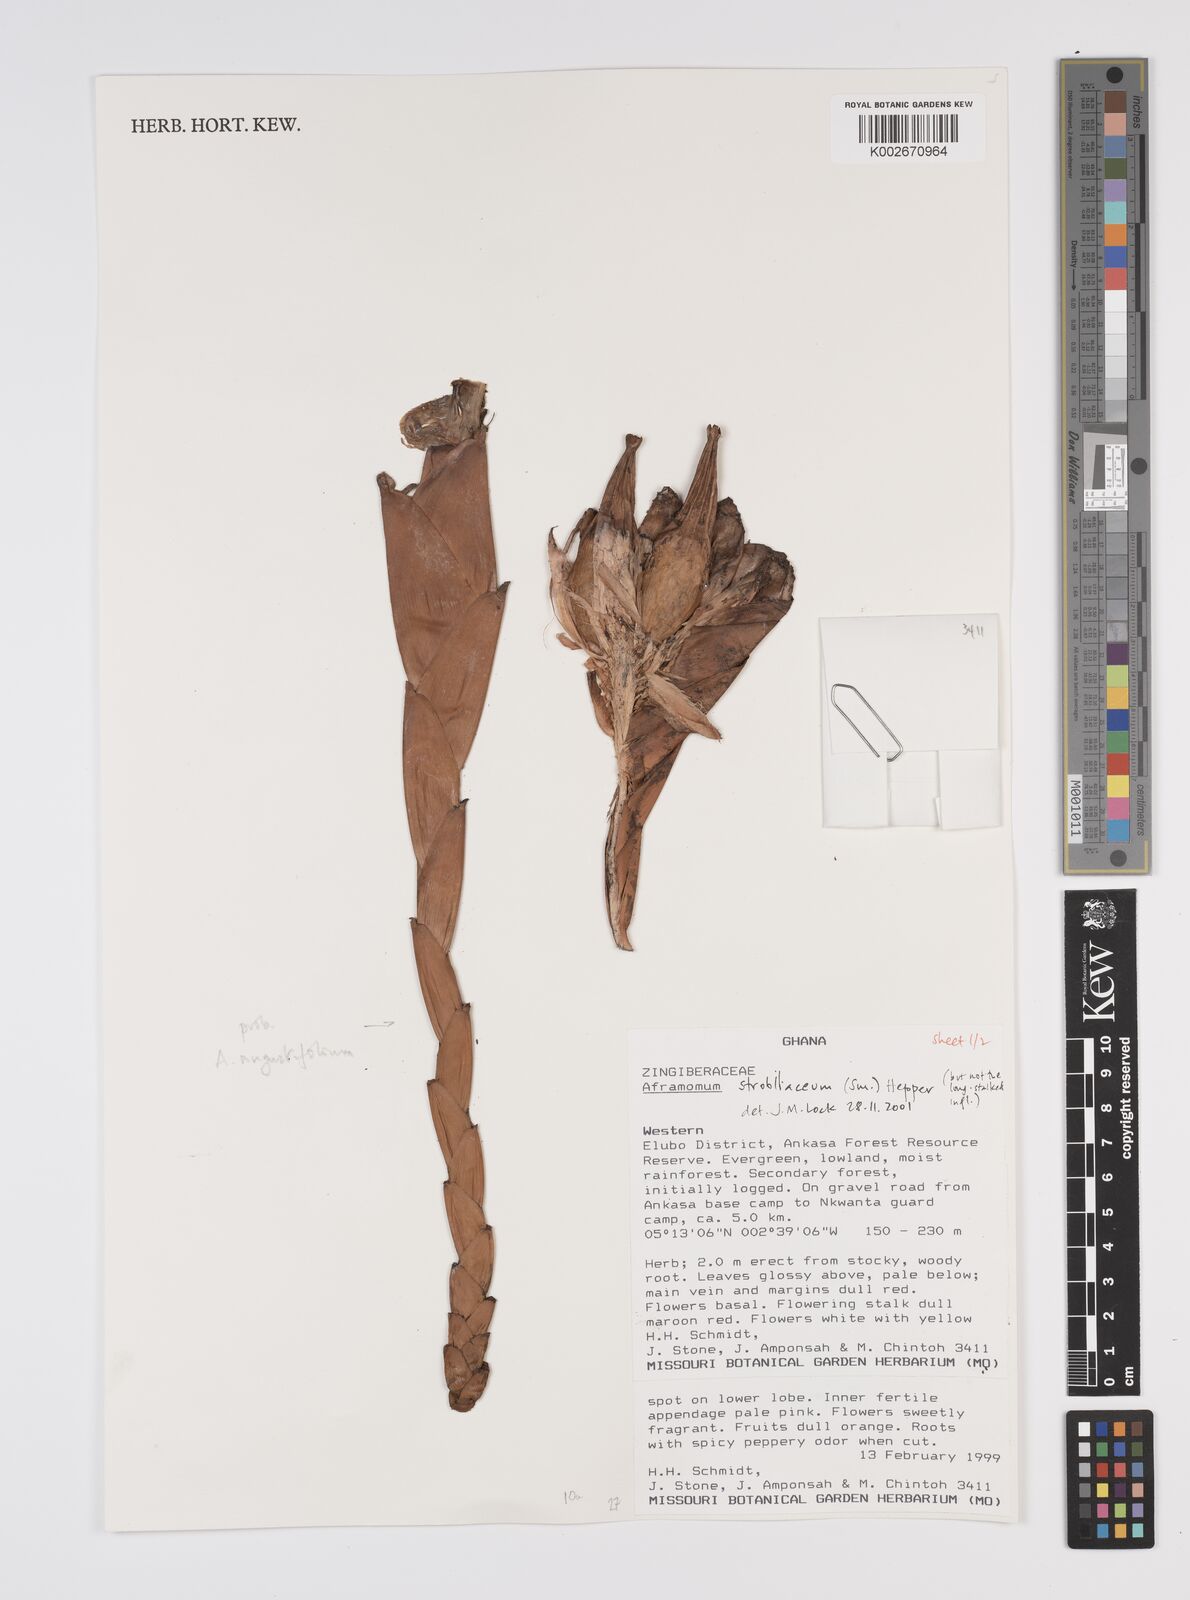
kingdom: Plantae
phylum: Tracheophyta
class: Liliopsida
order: Zingiberales
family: Zingiberaceae
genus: Aframomum
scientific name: Aframomum strobilaceum
